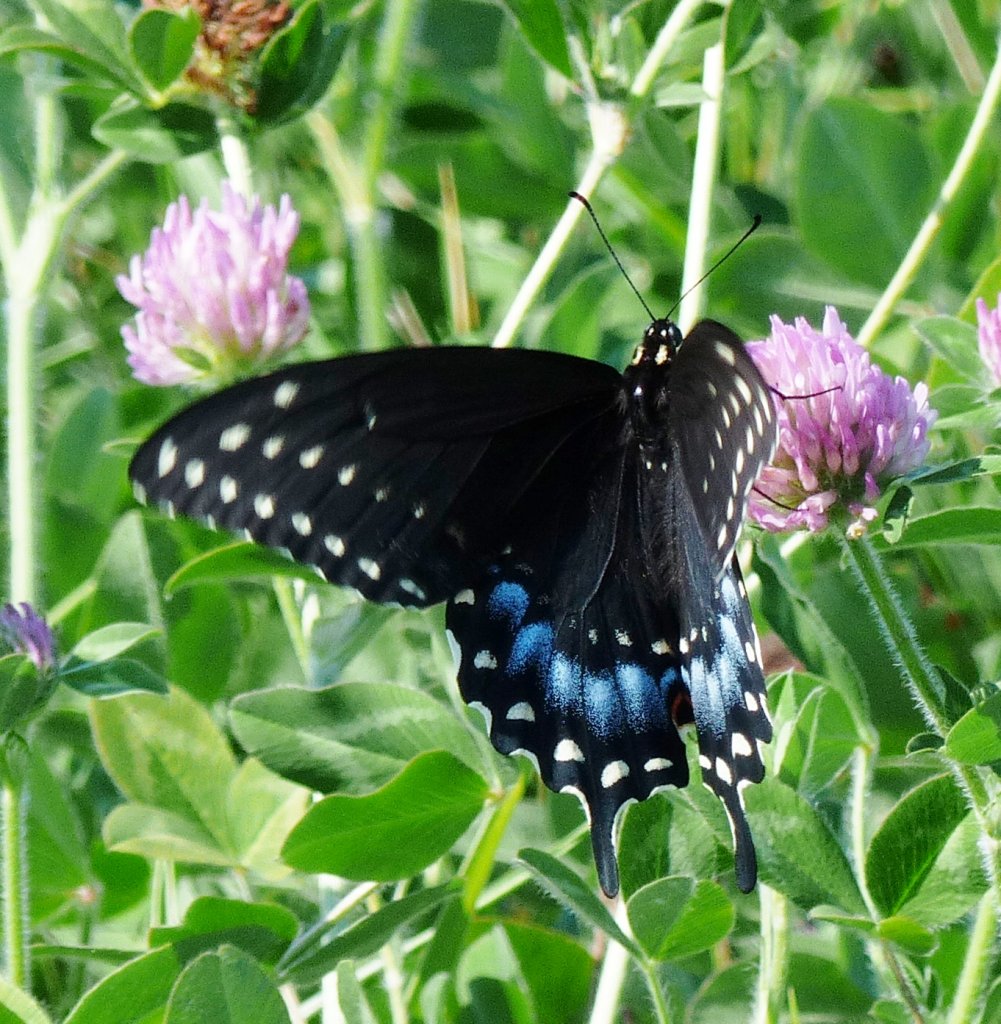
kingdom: Animalia
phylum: Arthropoda
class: Insecta
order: Lepidoptera
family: Papilionidae
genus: Papilio
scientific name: Papilio polyxenes
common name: Black Swallowtail
